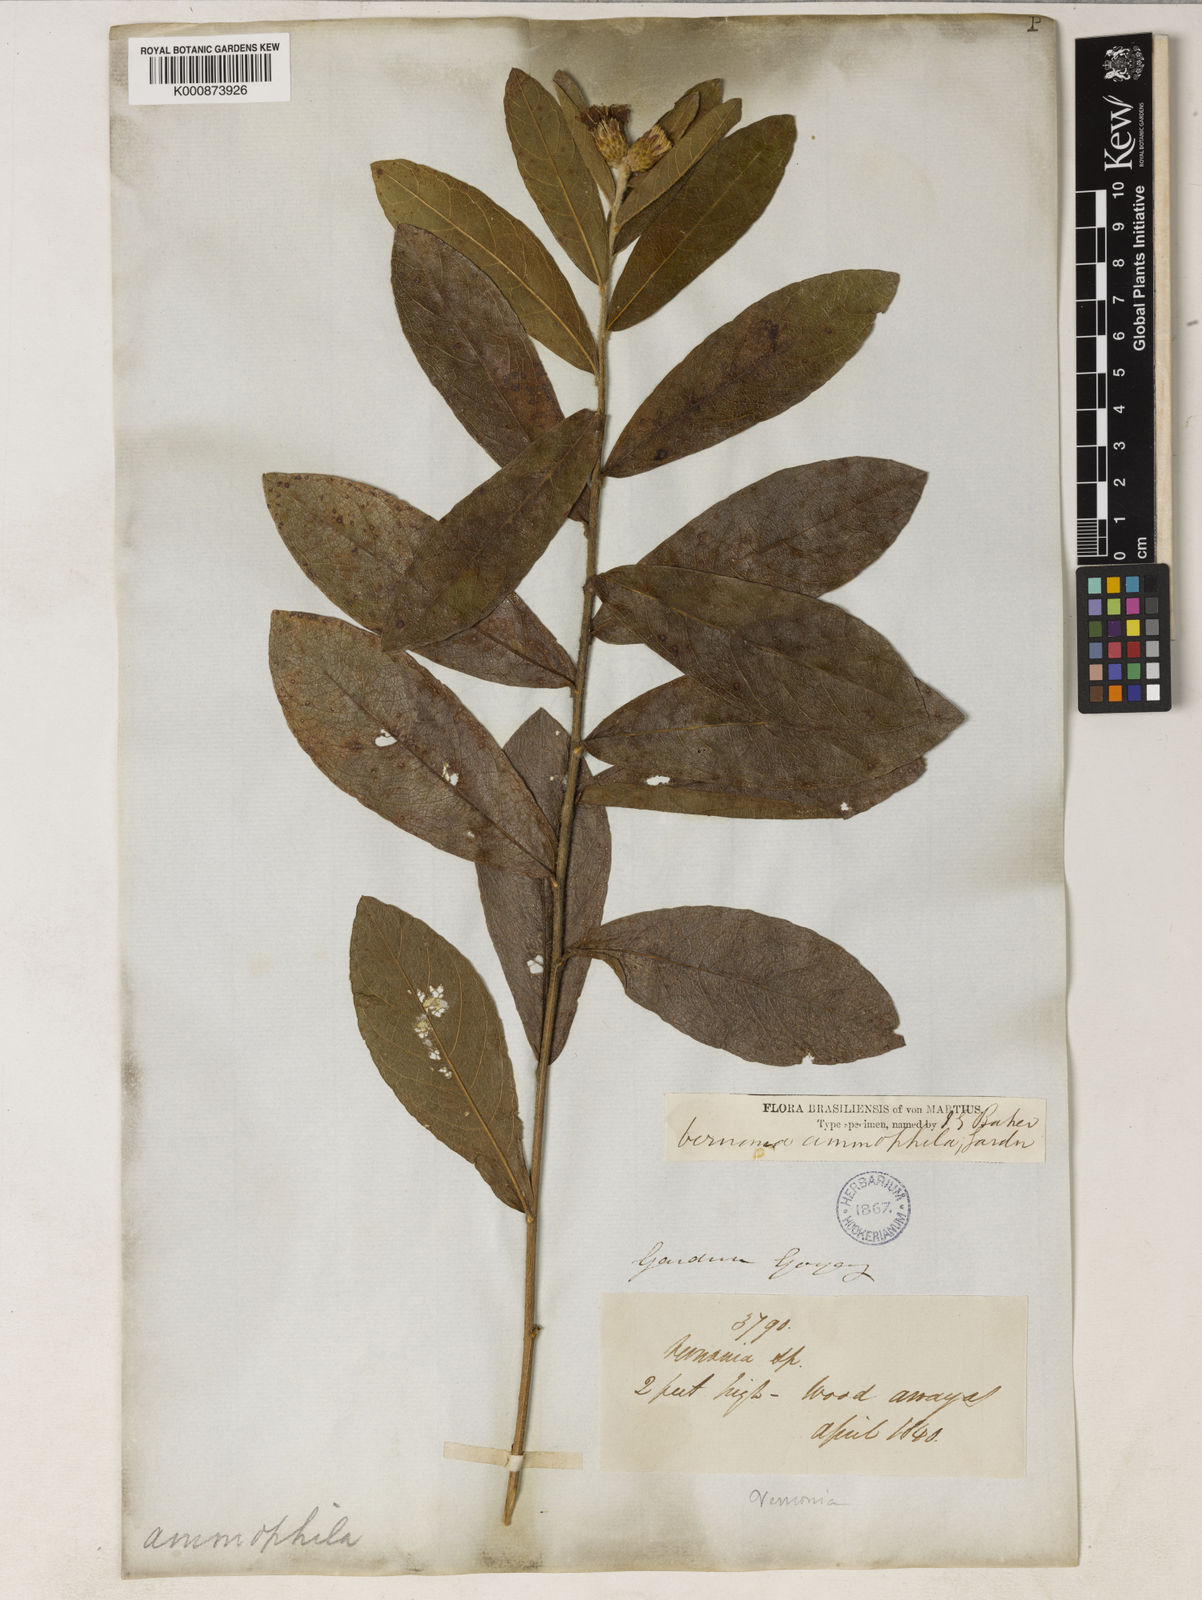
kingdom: Plantae
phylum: Tracheophyta
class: Magnoliopsida
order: Asterales
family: Asteraceae
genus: Lessingianthus
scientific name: Lessingianthus ammophilus
